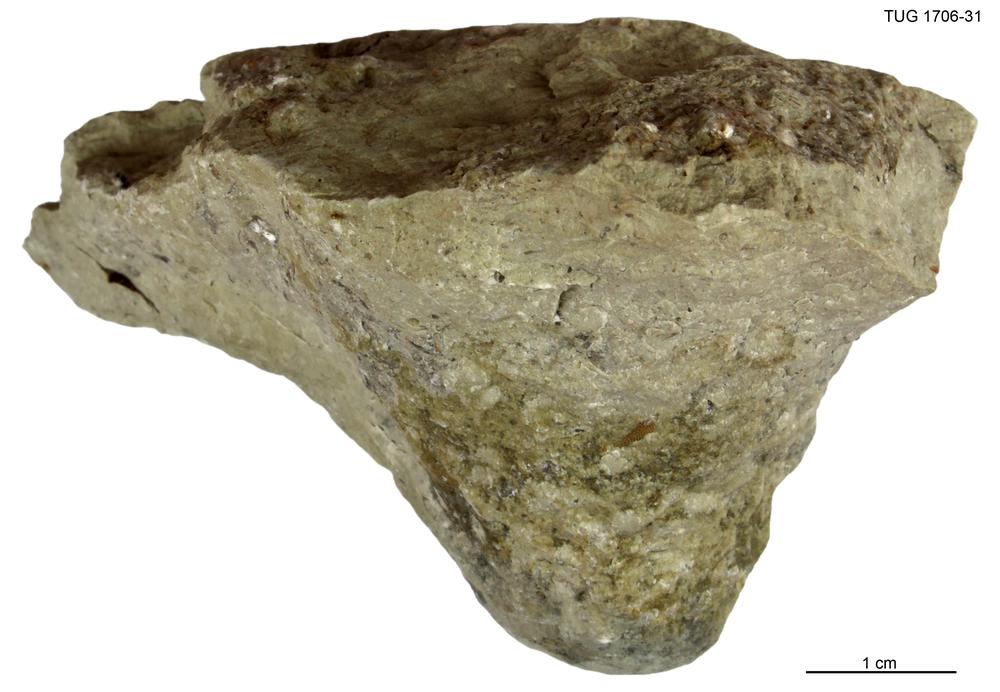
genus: Conichnus
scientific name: Conichnus
